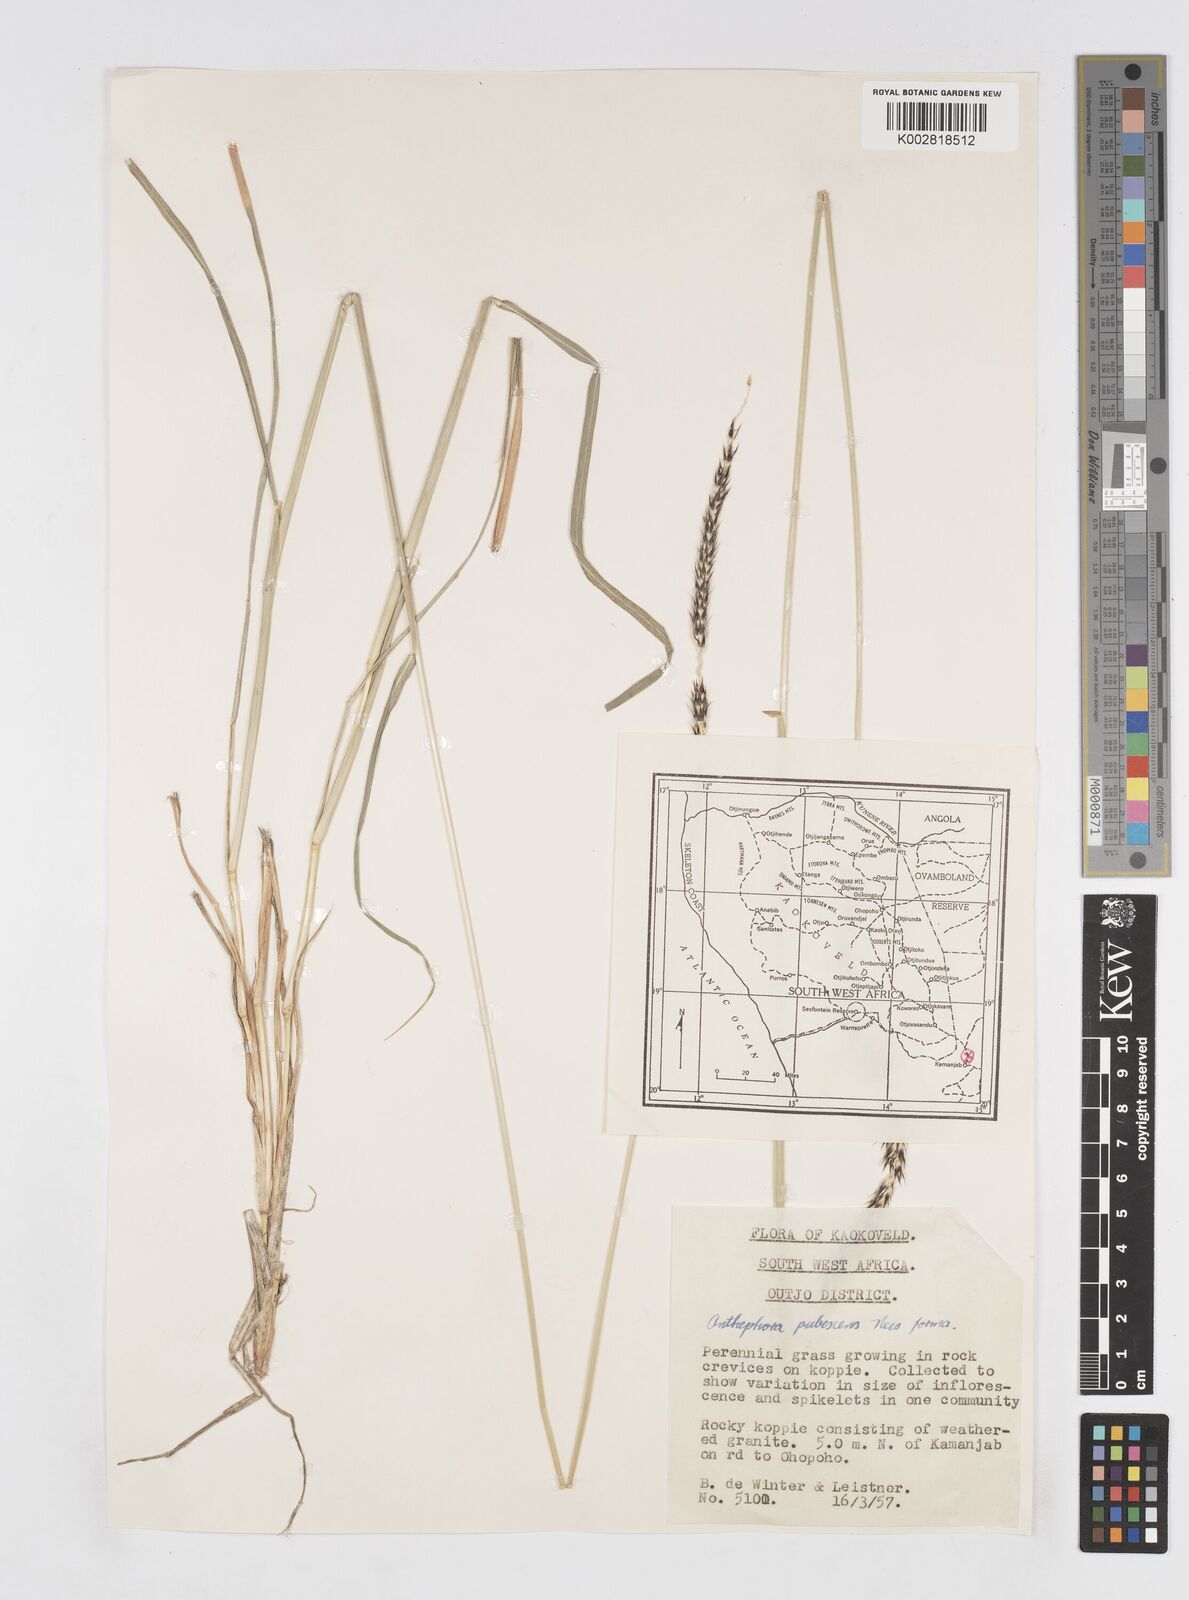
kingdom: Plantae
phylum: Tracheophyta
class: Liliopsida
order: Poales
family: Poaceae
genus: Anthephora
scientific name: Anthephora pubescens
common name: Wool grass
